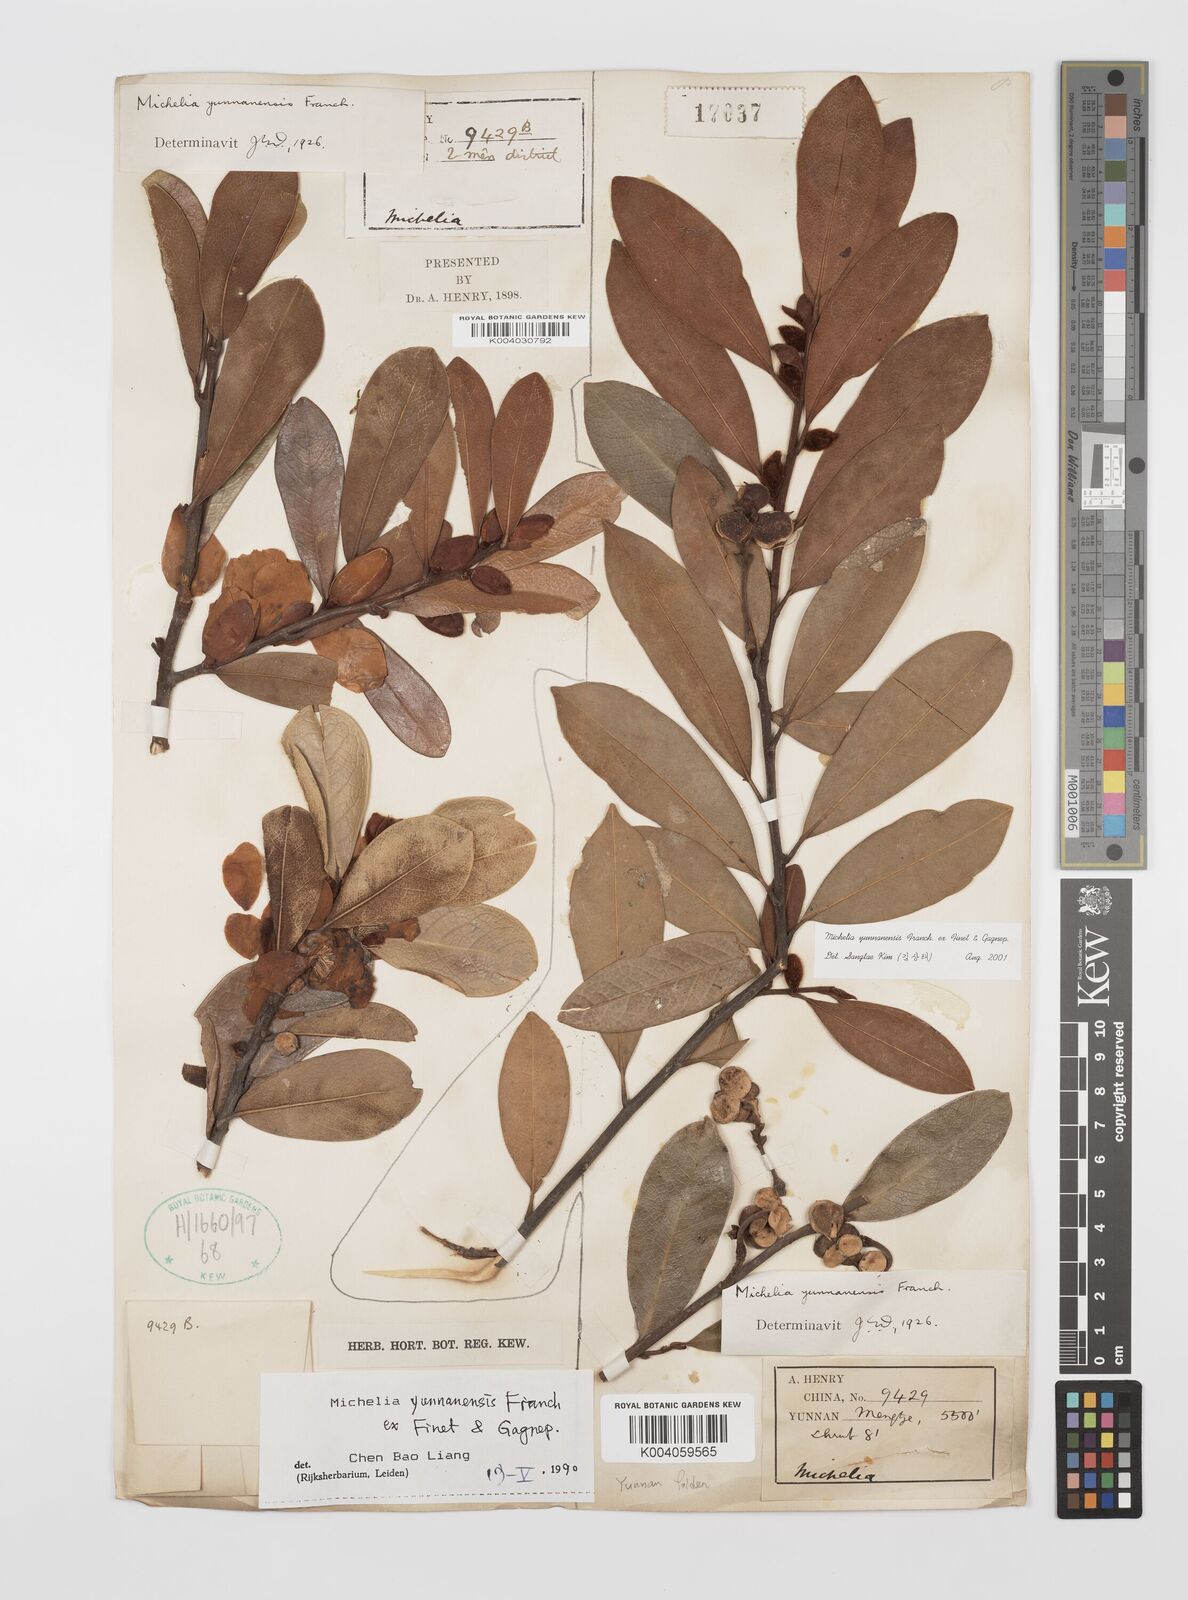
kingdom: Plantae
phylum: Tracheophyta
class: Magnoliopsida
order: Magnoliales
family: Magnoliaceae
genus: Magnolia
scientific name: Magnolia laevifolia
